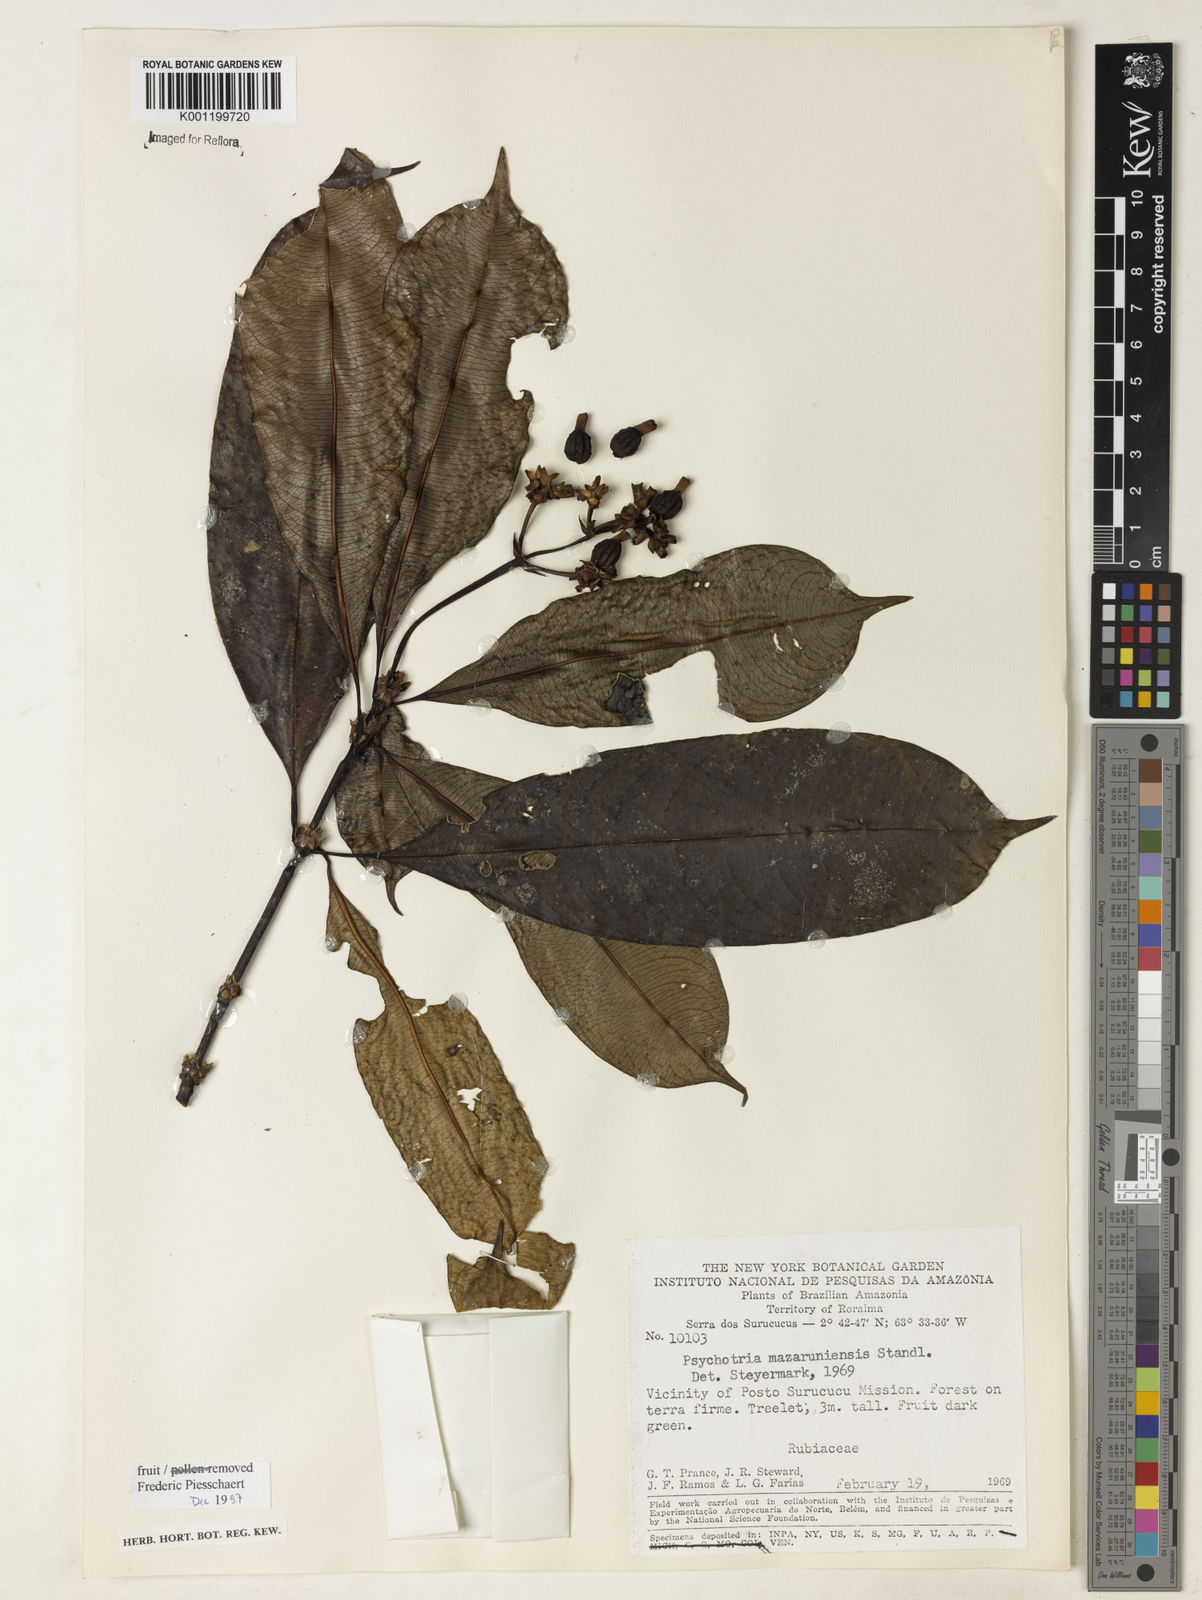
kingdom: Plantae
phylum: Tracheophyta
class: Magnoliopsida
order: Gentianales
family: Rubiaceae
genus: Palicourea
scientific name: Palicourea jenmanii
